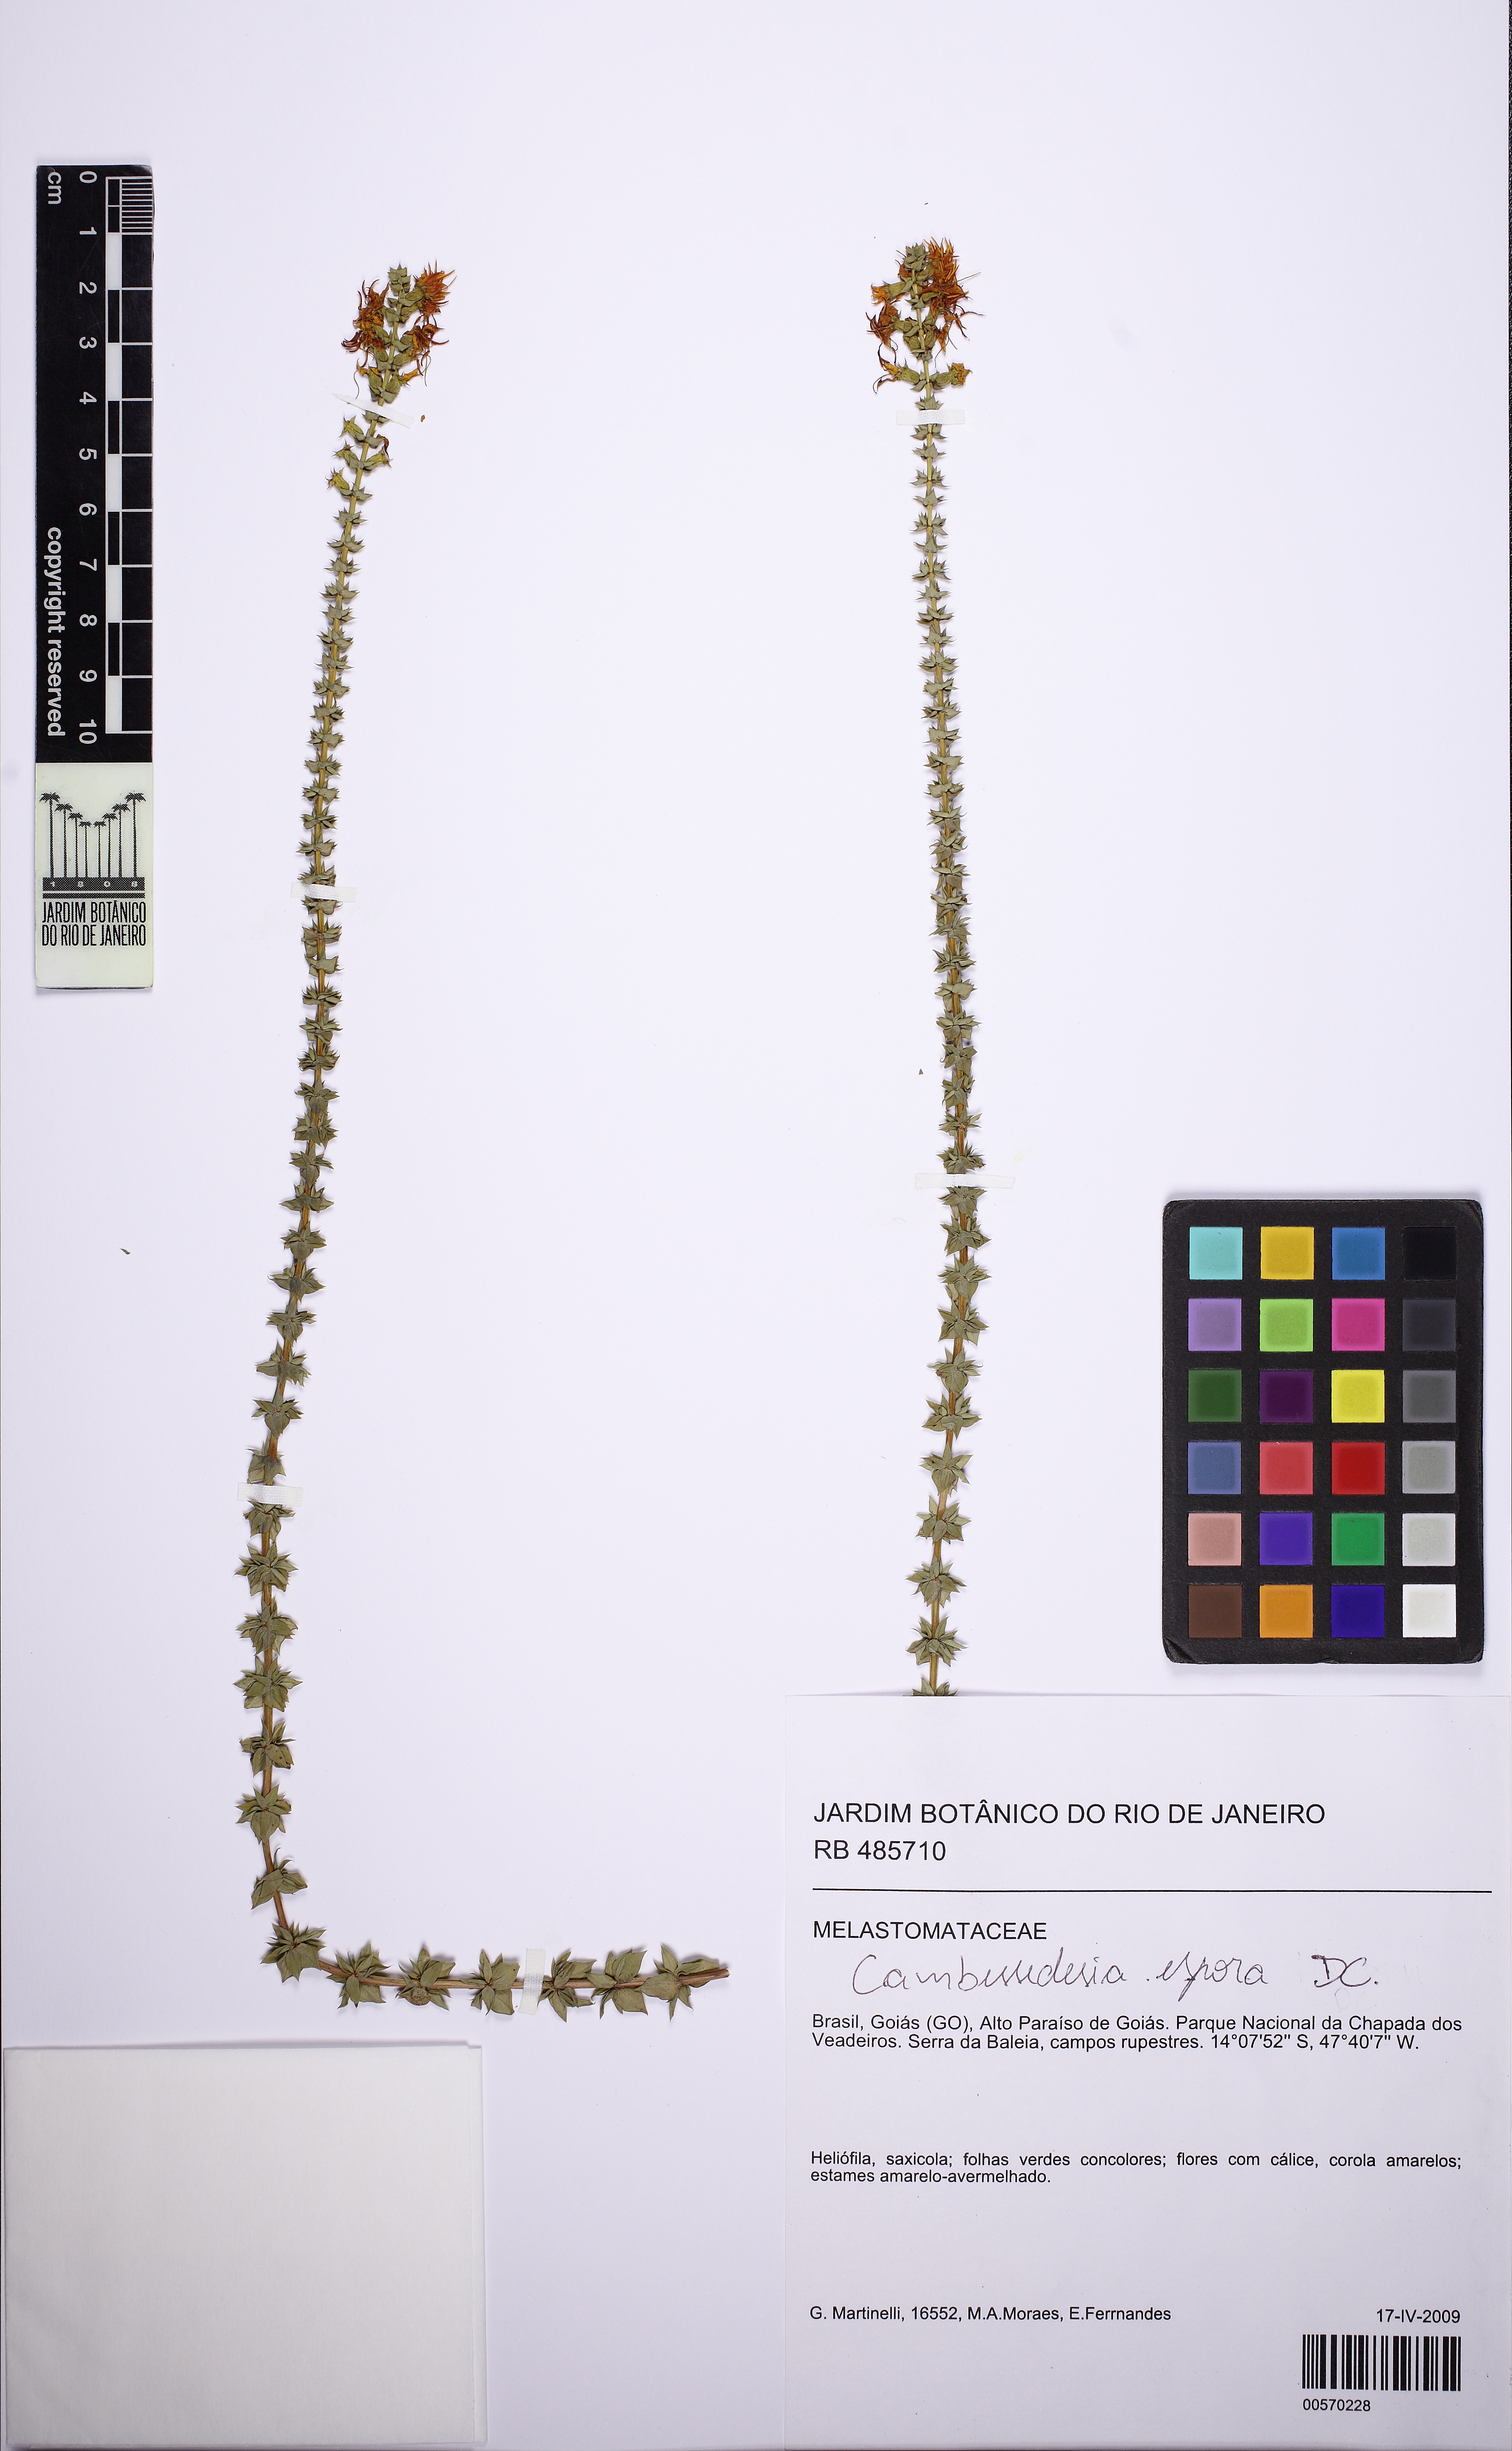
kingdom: Plantae
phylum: Tracheophyta
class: Magnoliopsida
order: Myrtales
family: Melastomataceae
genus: Cambessedesia
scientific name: Cambessedesia espora
